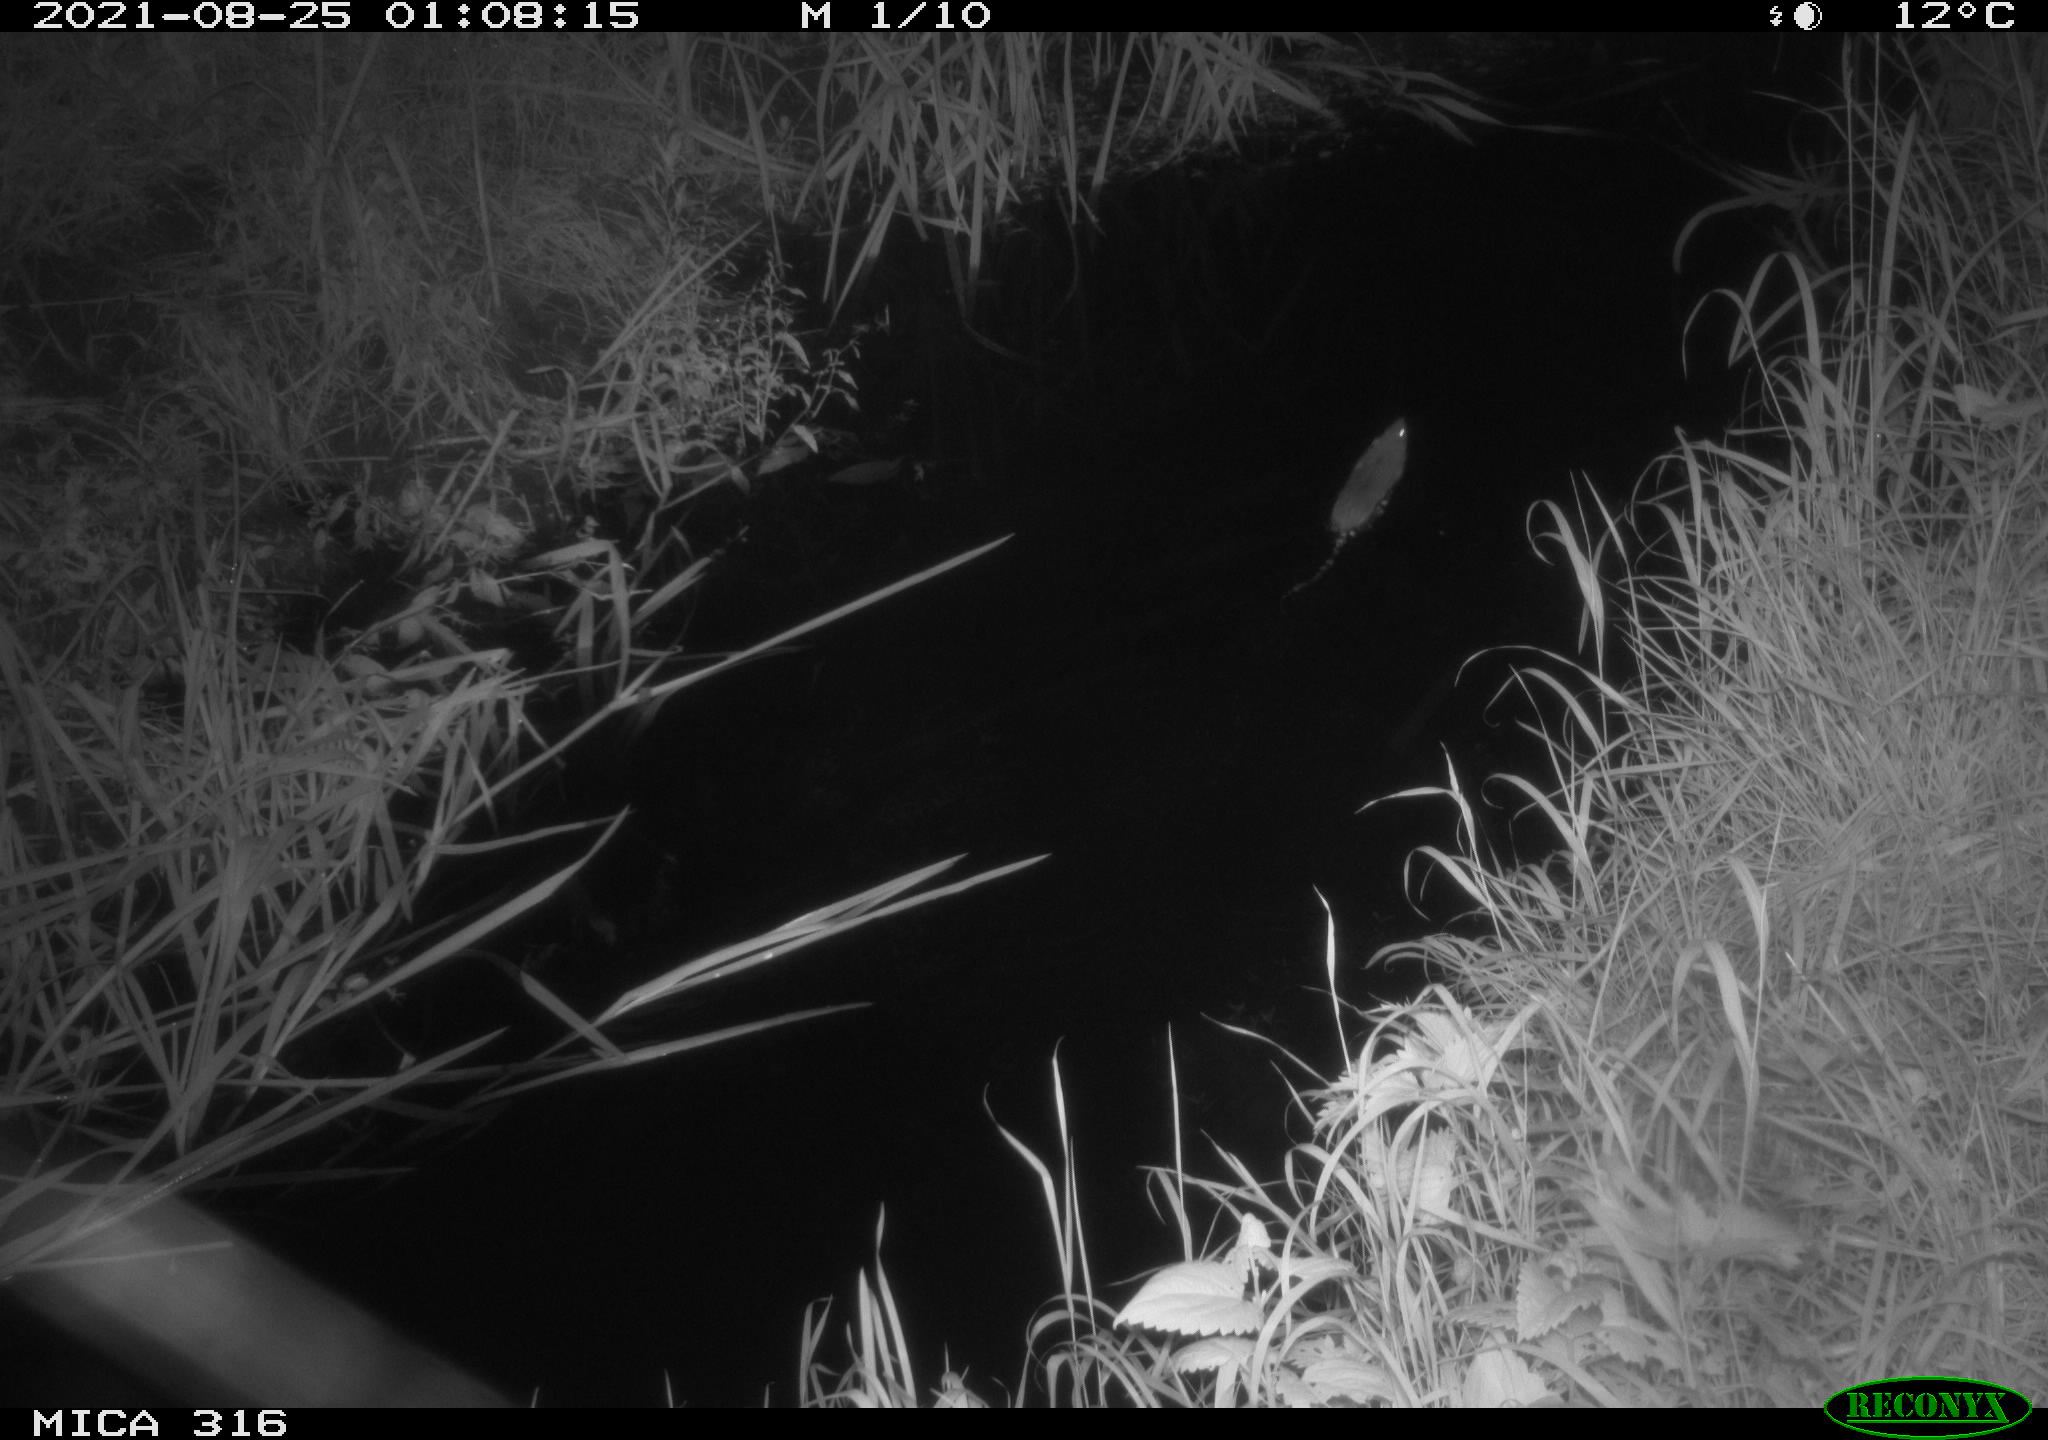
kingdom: Animalia
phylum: Chordata
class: Mammalia
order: Rodentia
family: Muridae
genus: Rattus
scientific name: Rattus norvegicus
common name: Brown rat
